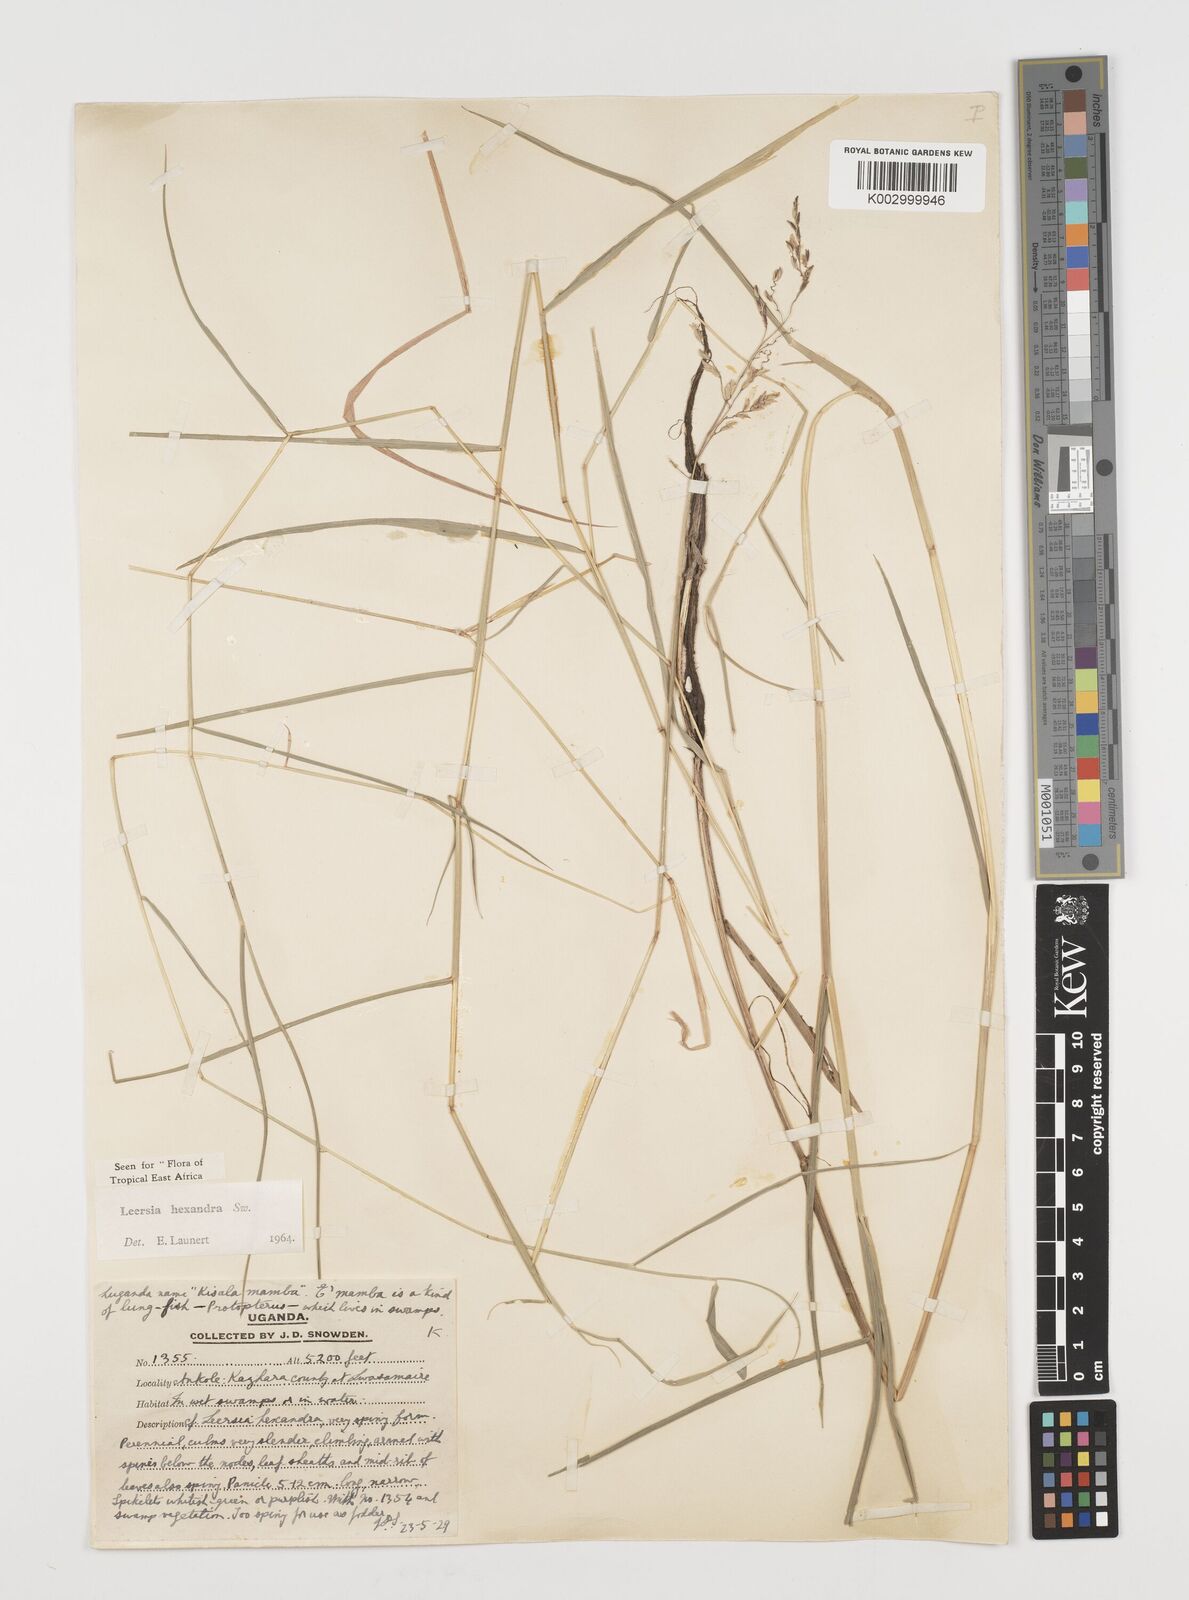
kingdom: Plantae
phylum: Tracheophyta
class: Liliopsida
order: Poales
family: Poaceae
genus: Leersia
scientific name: Leersia hexandra
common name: Southern cut grass
